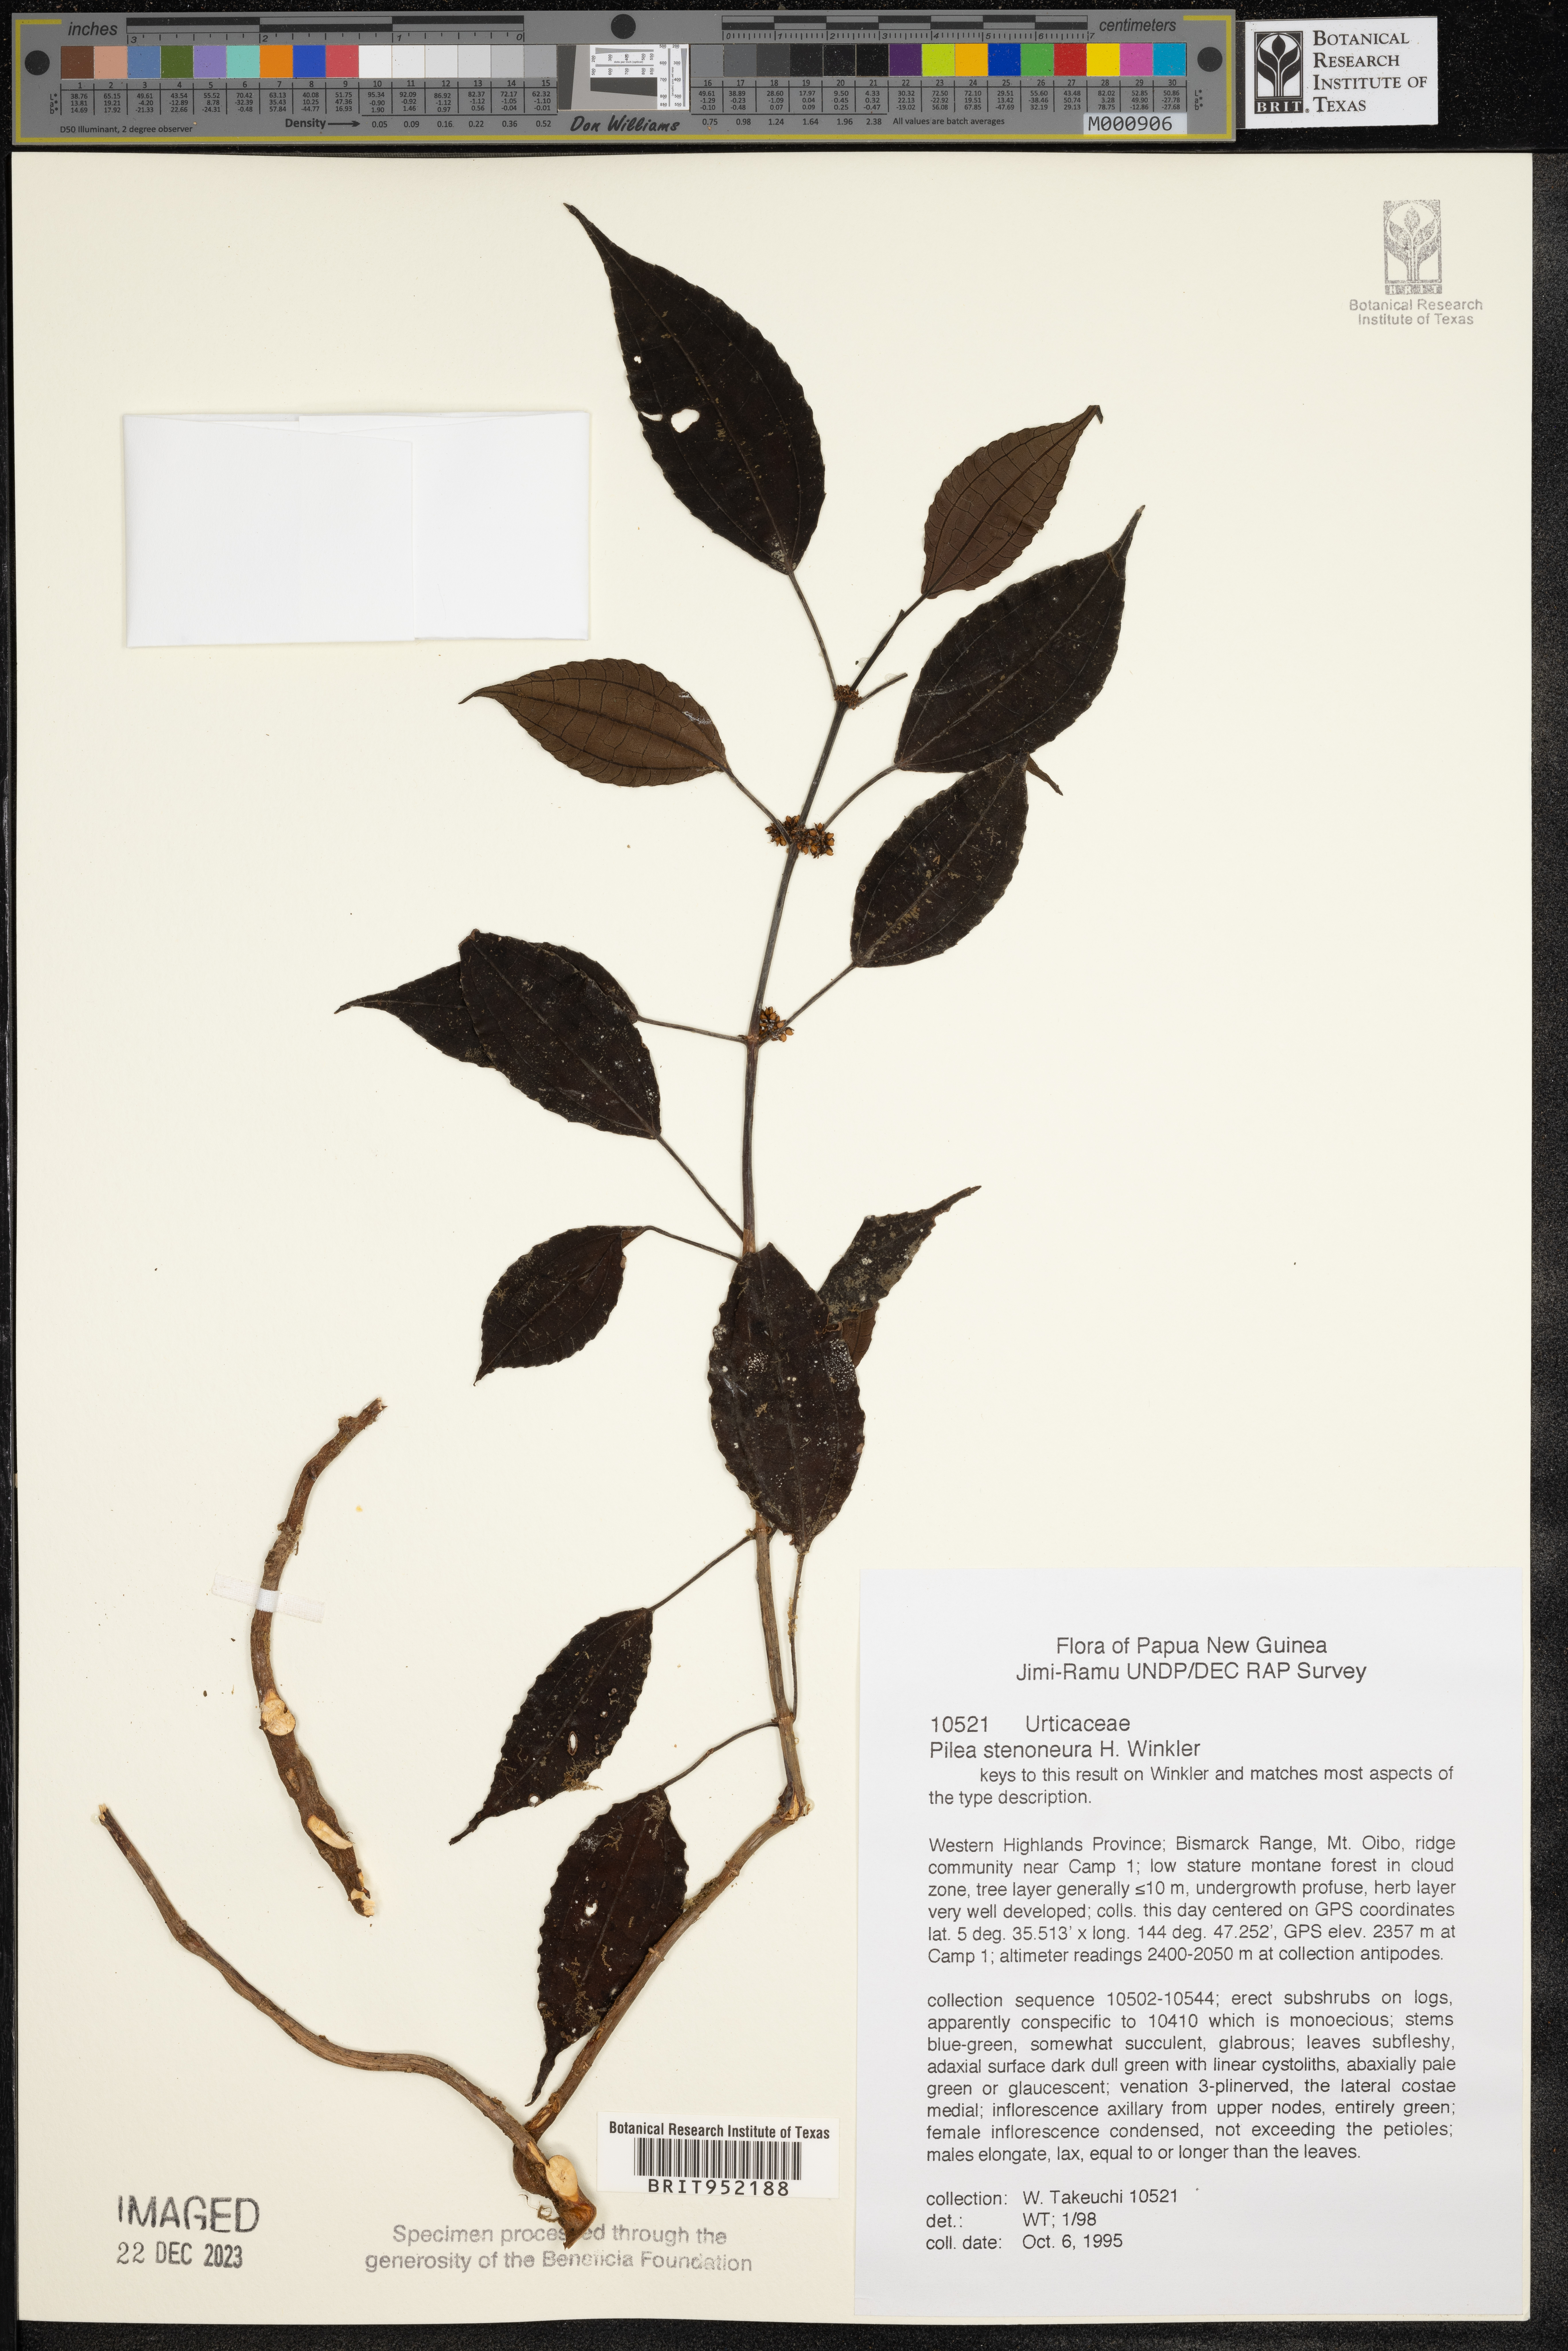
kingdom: Plantae
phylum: Tracheophyta
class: Magnoliopsida
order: Rosales
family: Urticaceae
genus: Pilea
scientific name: Pilea
